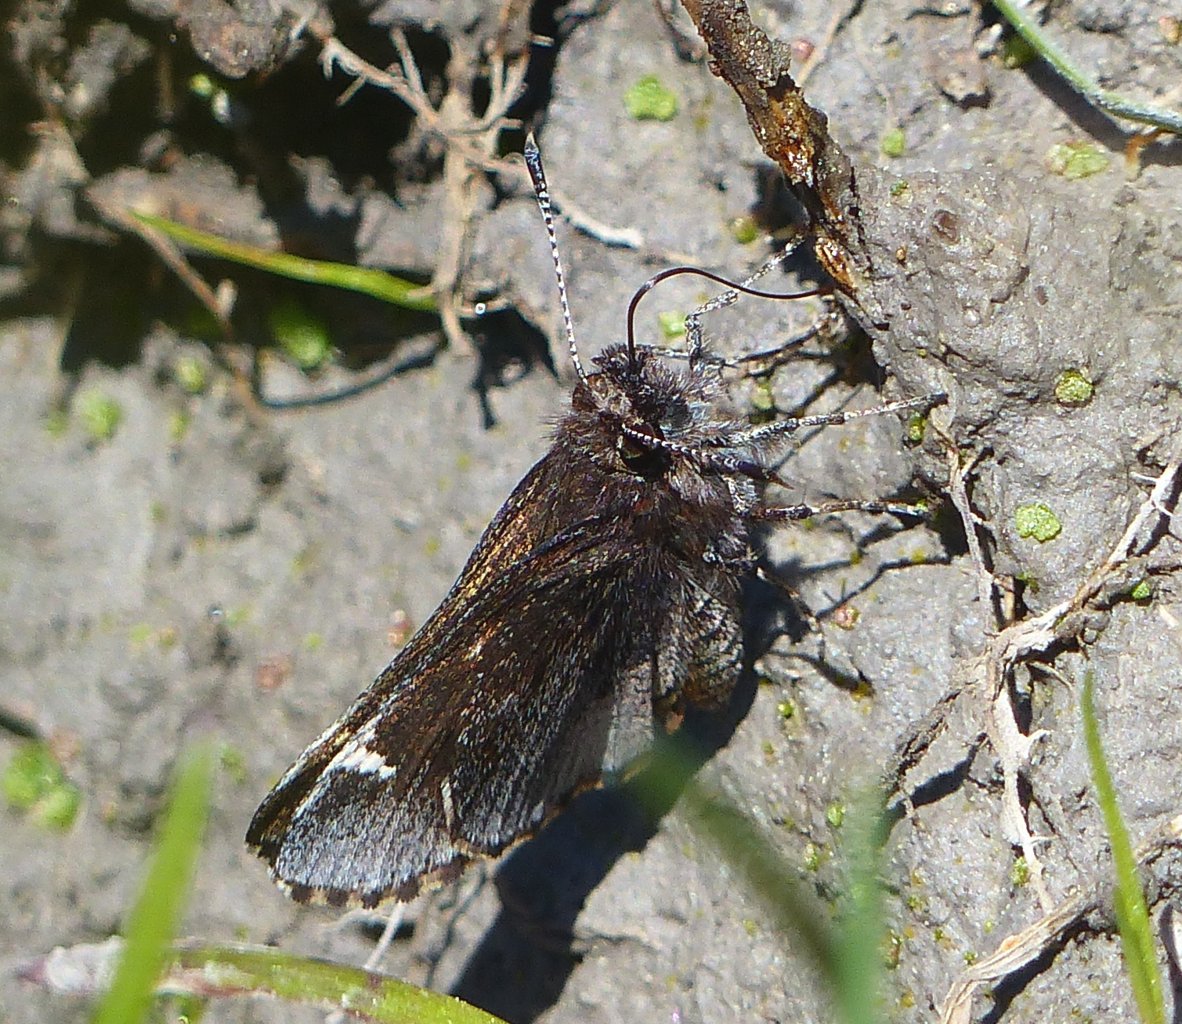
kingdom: Animalia
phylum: Arthropoda
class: Insecta
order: Lepidoptera
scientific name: Lepidoptera
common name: Butterflies
